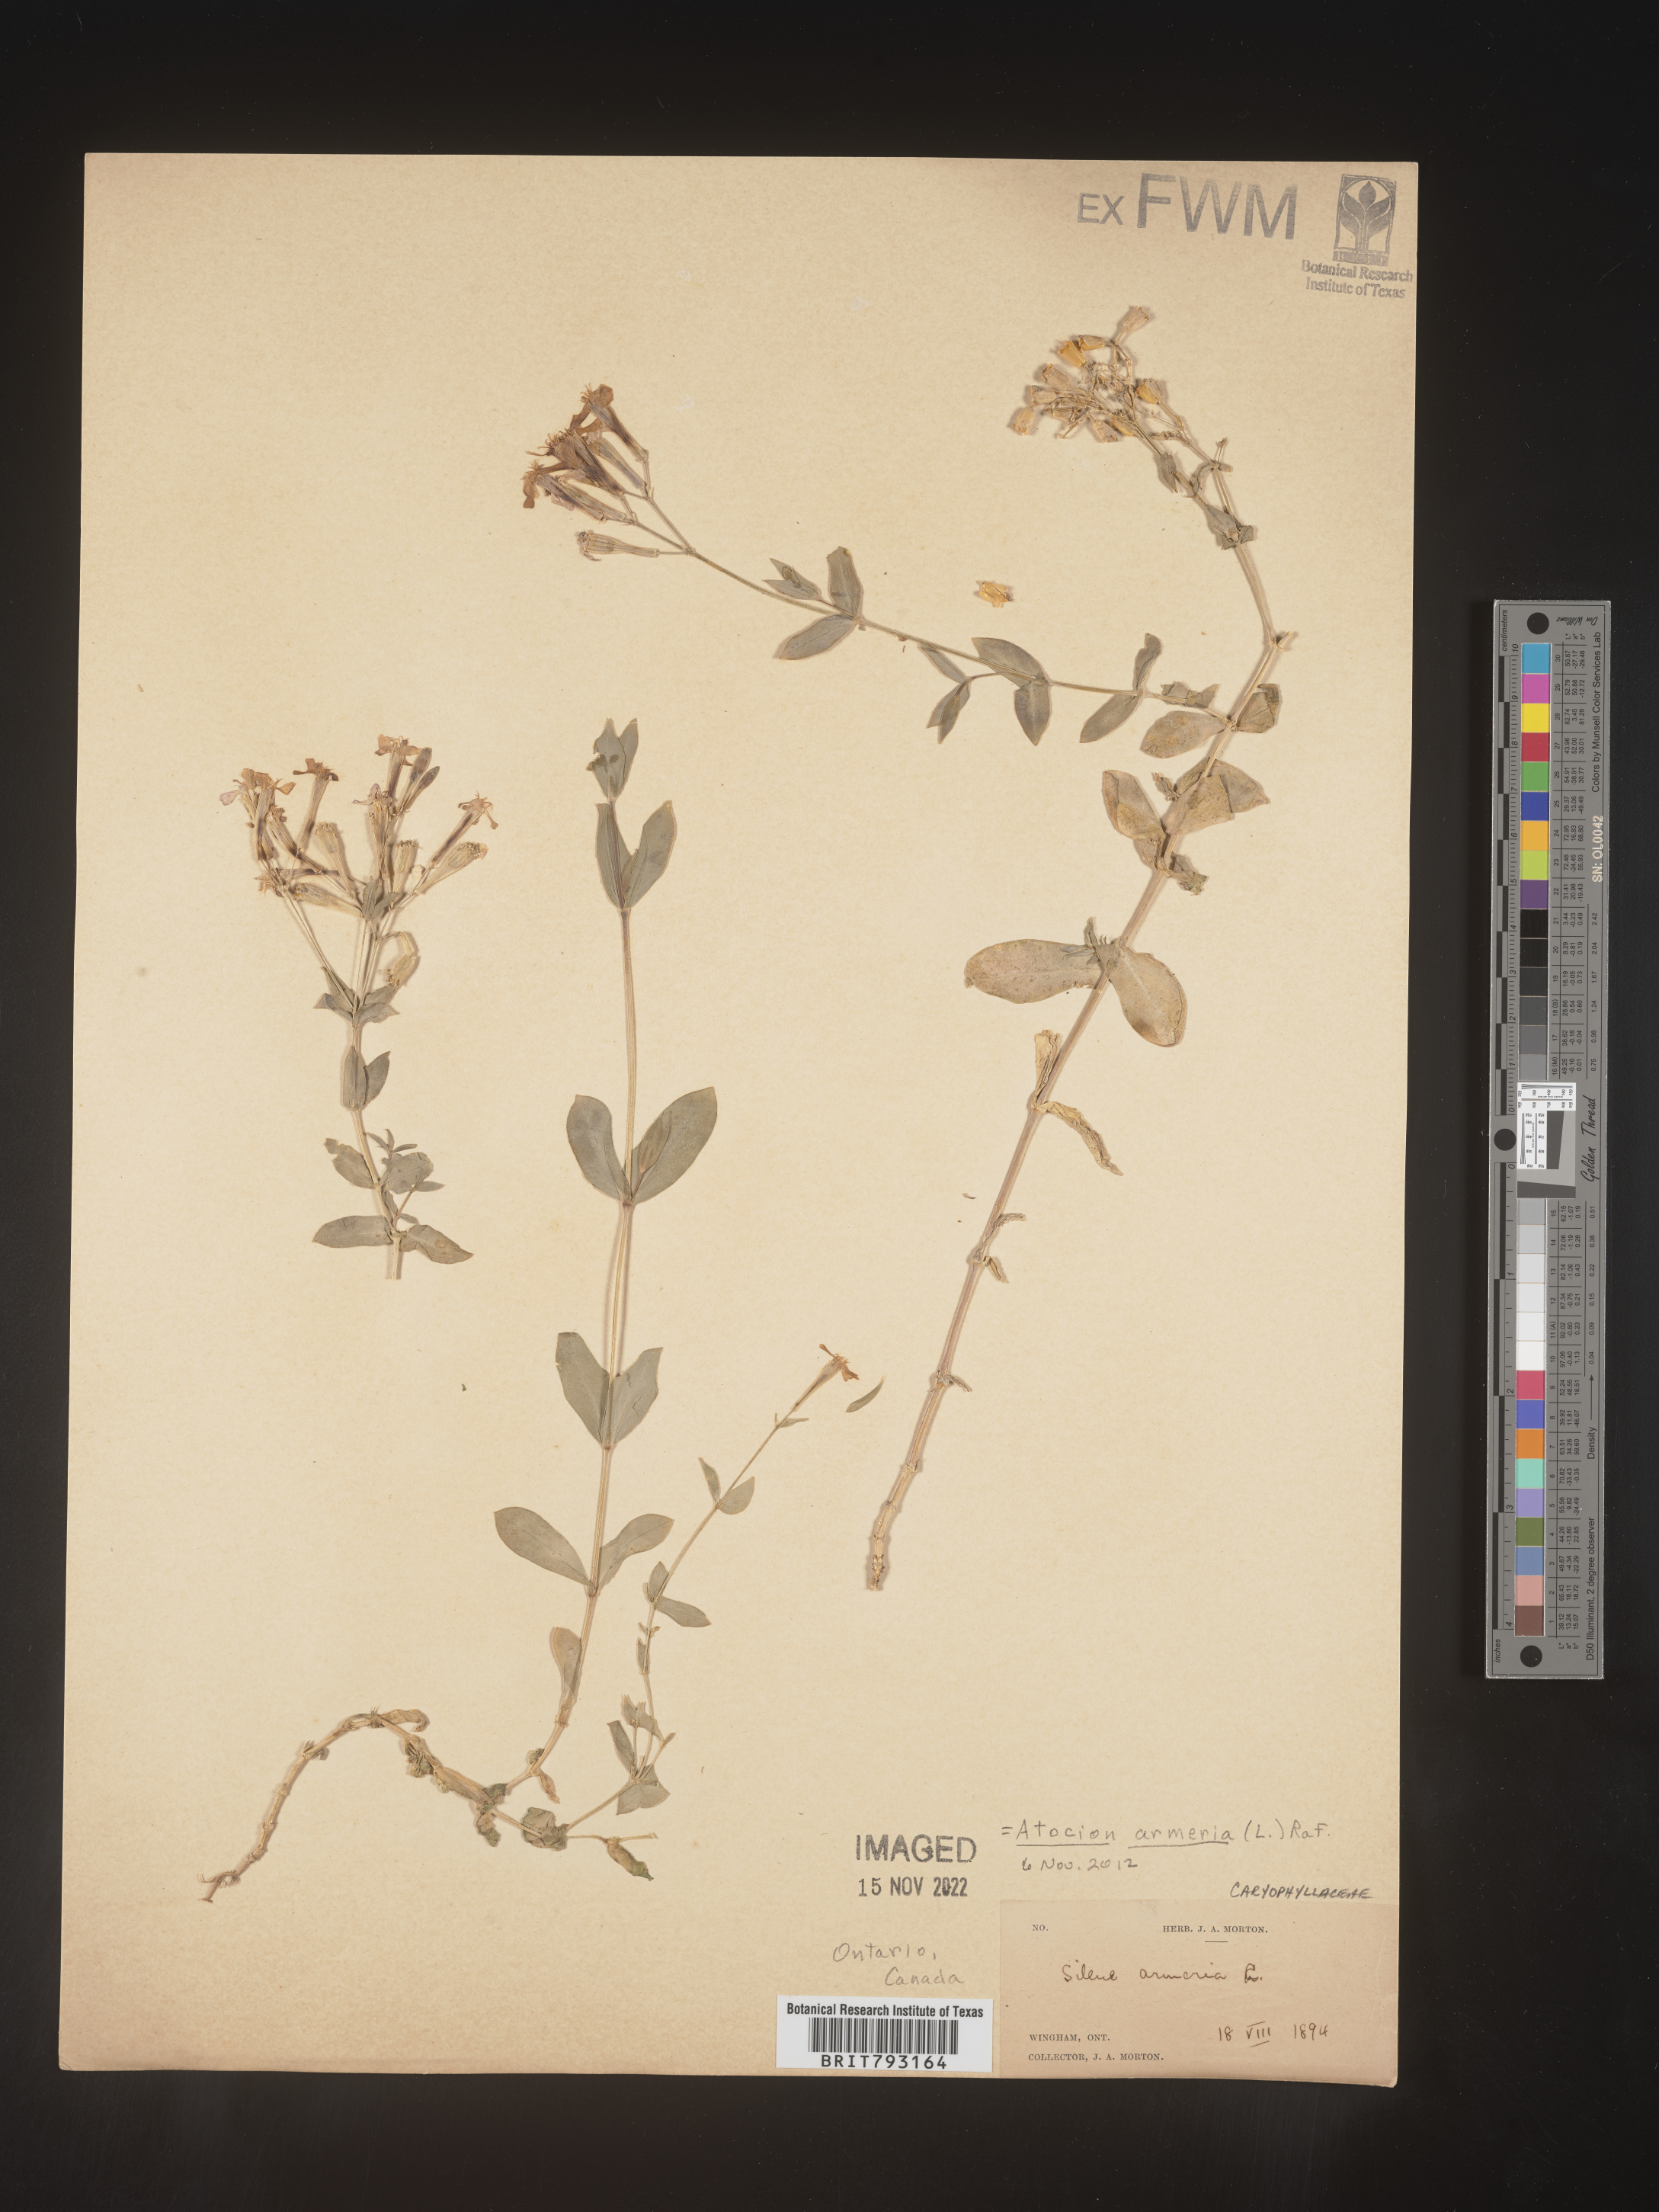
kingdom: Plantae
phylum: Tracheophyta
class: Magnoliopsida
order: Caryophyllales
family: Caryophyllaceae
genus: Atocion
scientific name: Atocion armeria
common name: Sweet william catchfly
